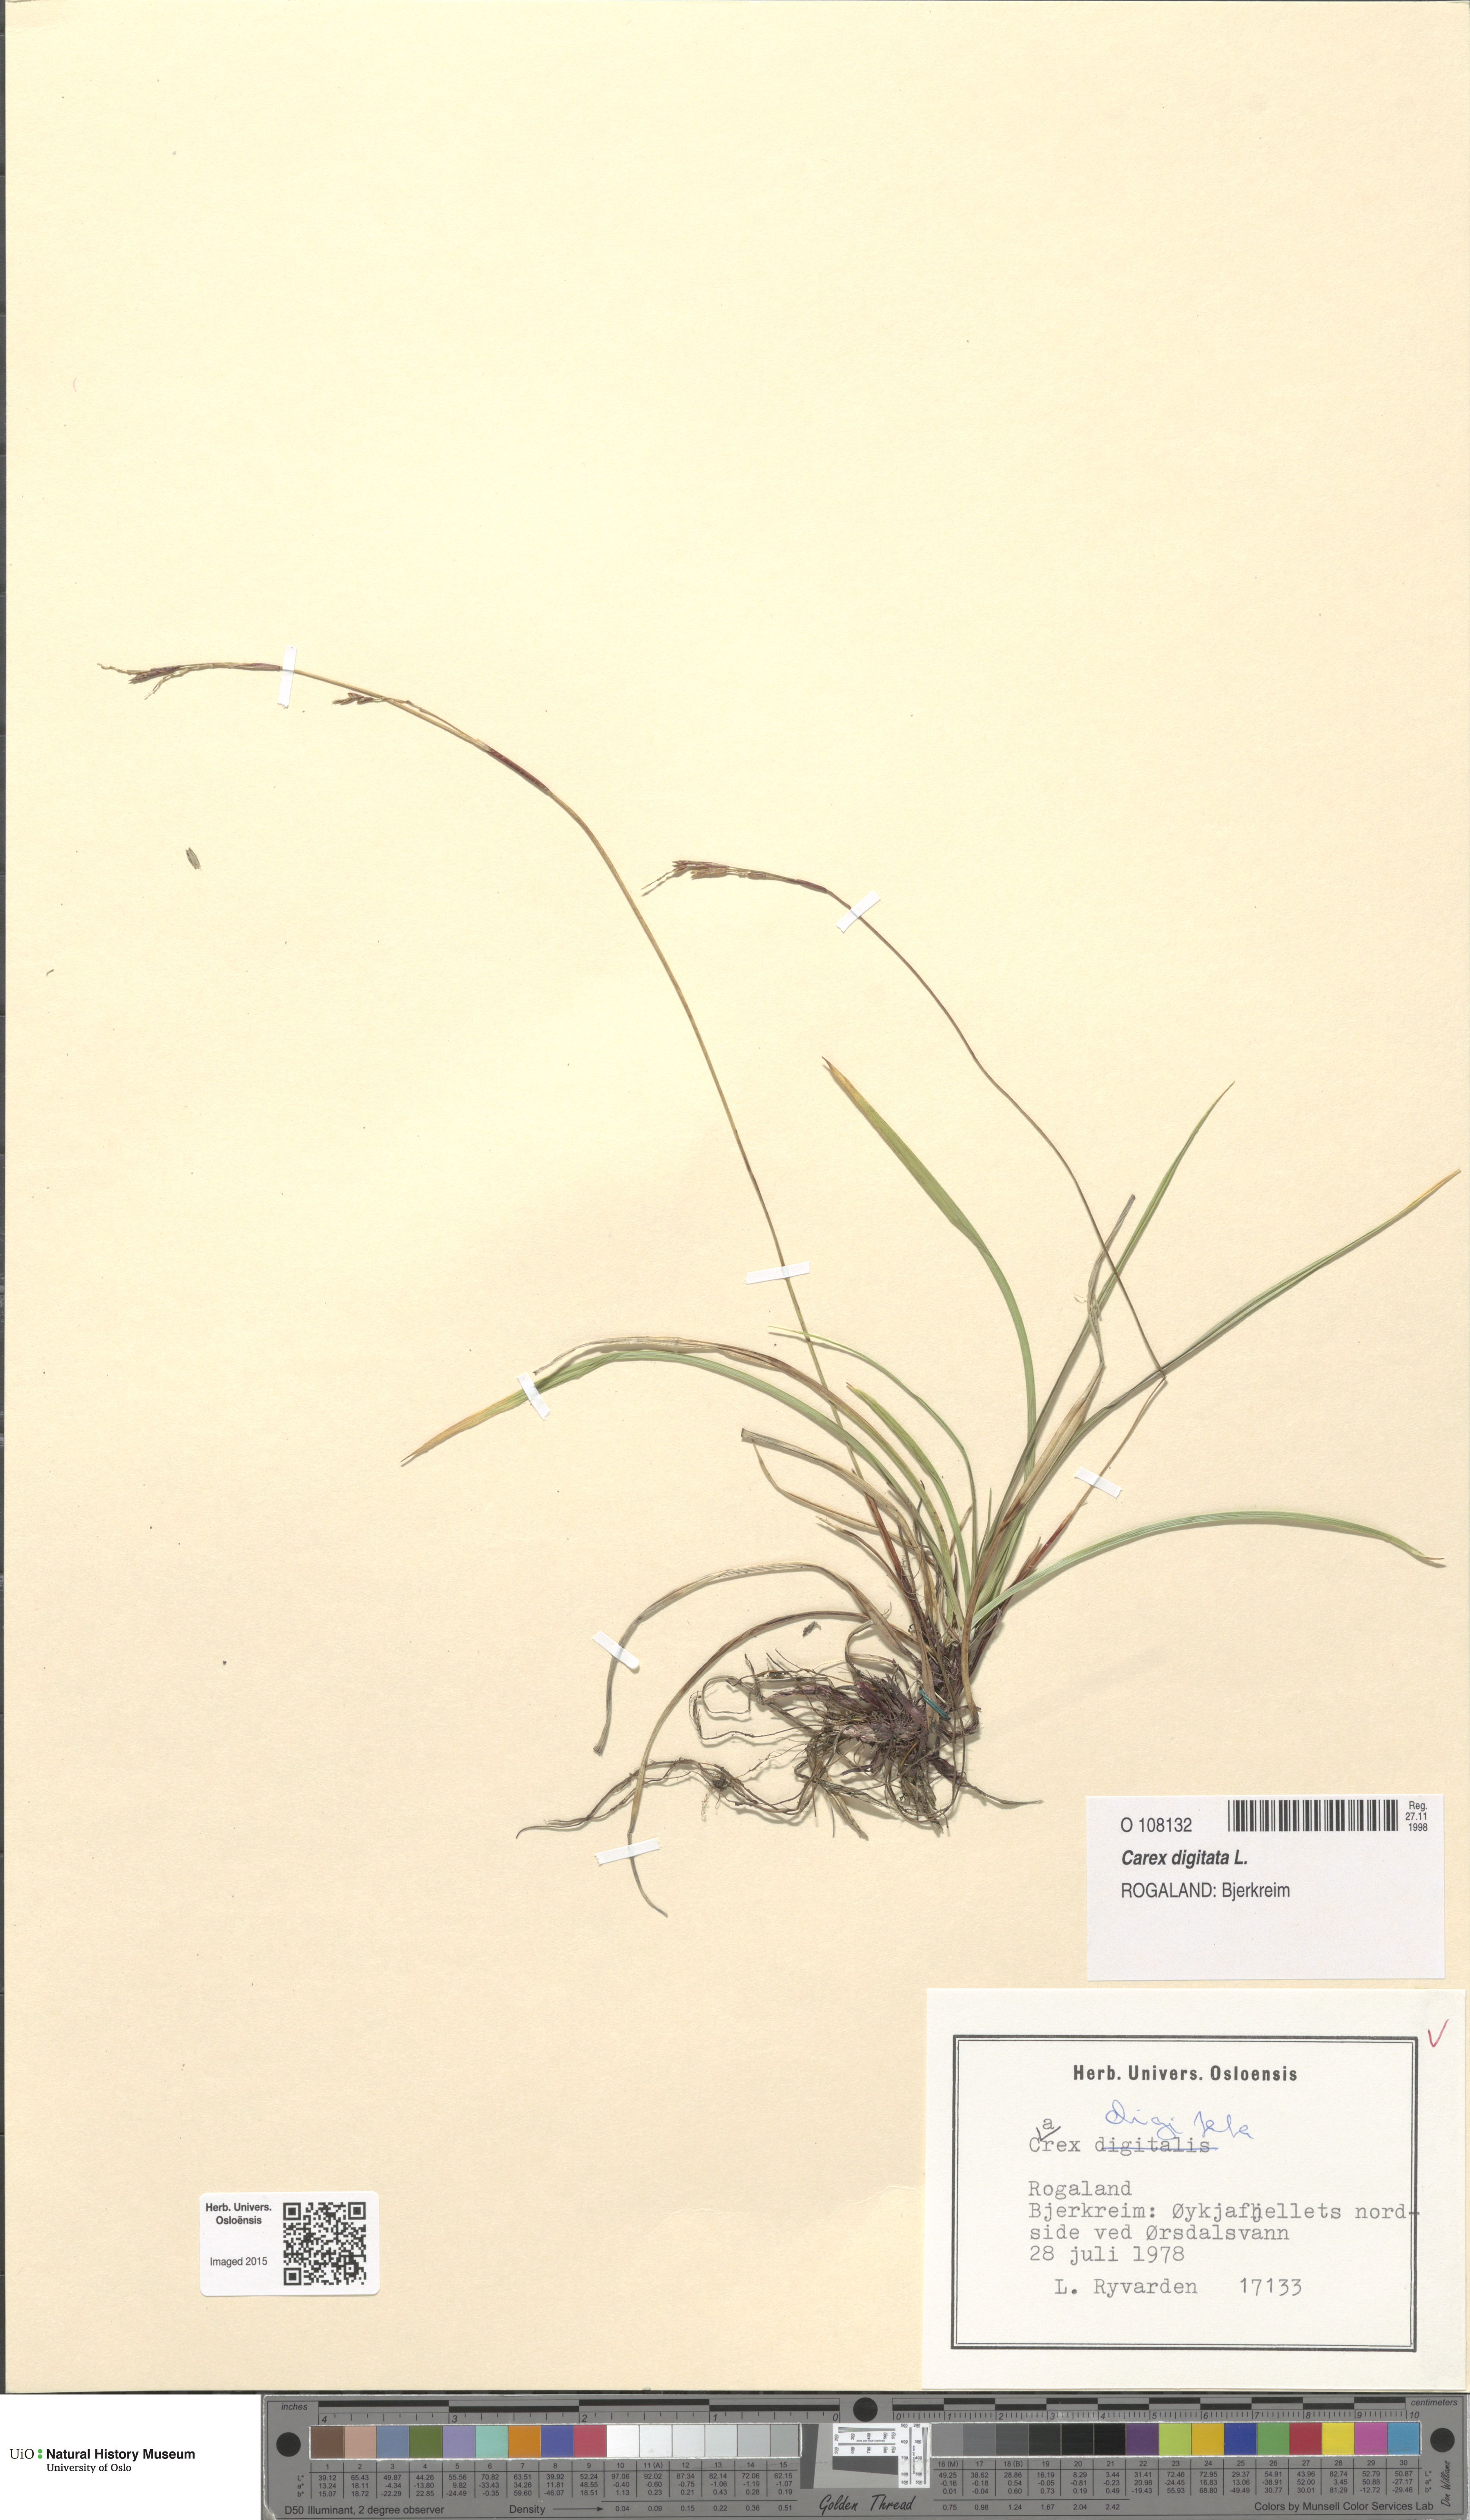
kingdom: Plantae
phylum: Tracheophyta
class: Liliopsida
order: Poales
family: Cyperaceae
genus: Carex
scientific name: Carex digitata
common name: Fingered sedge
